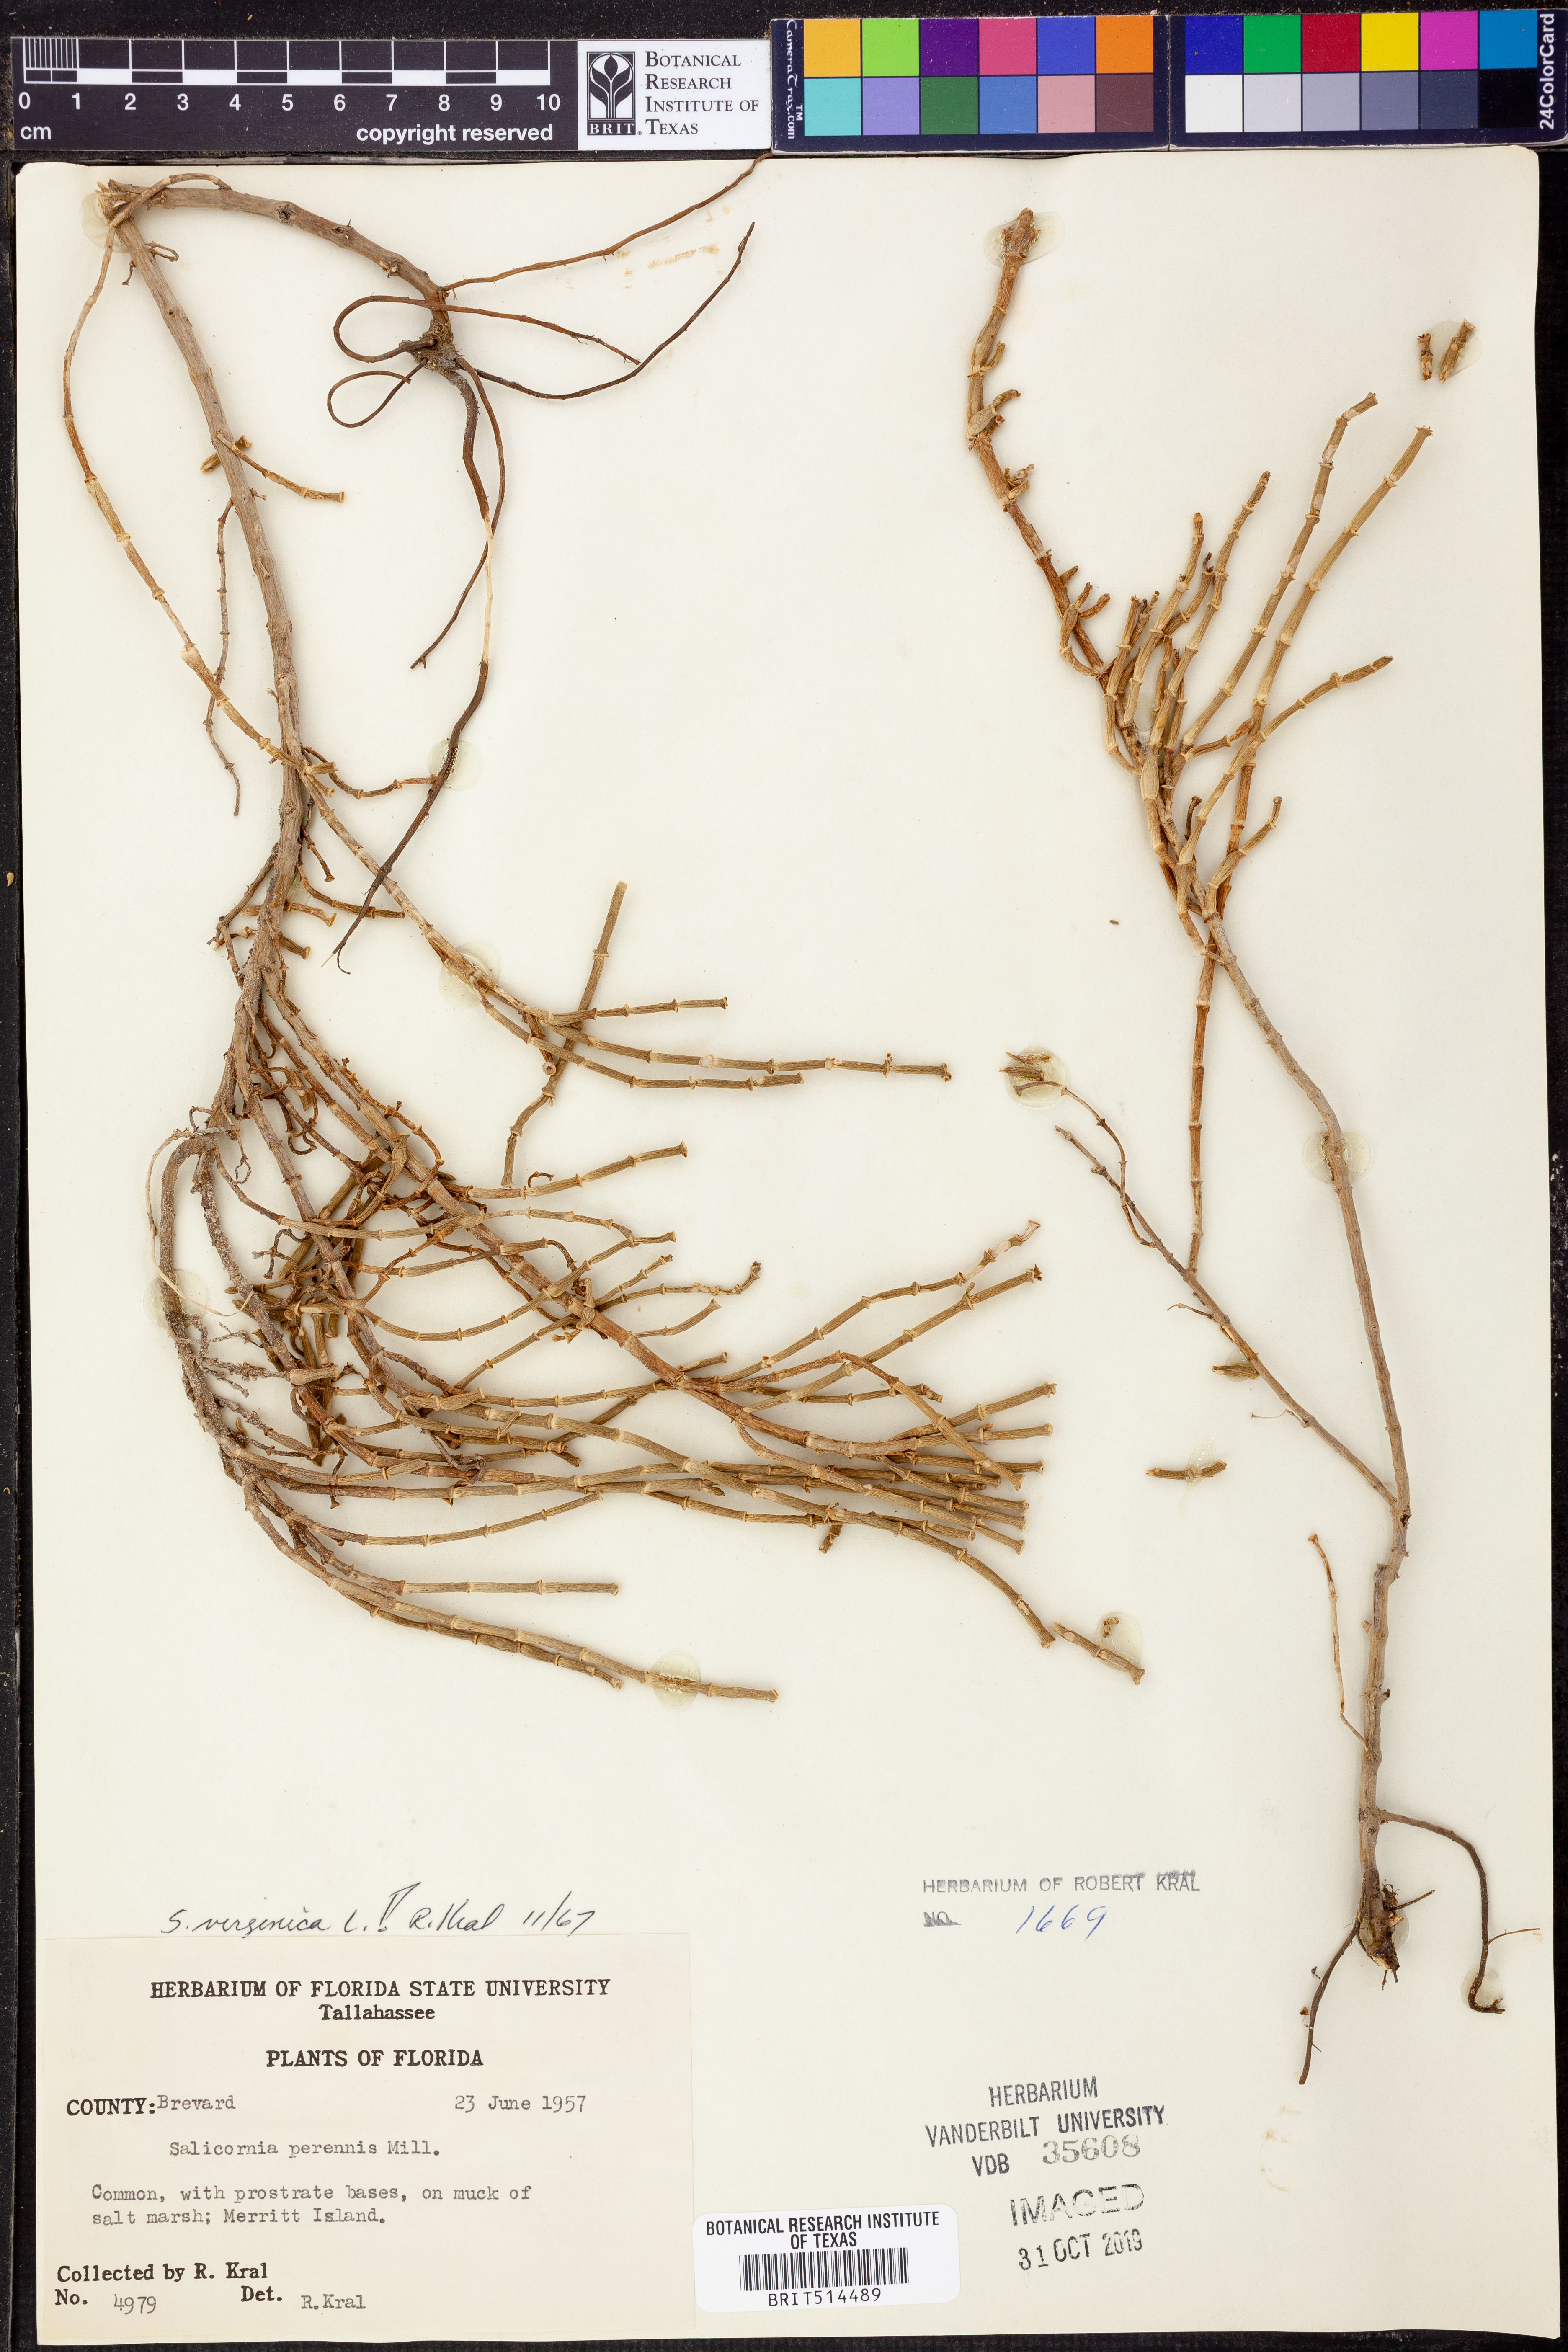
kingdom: Plantae
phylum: Tracheophyta
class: Magnoliopsida
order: Caryophyllales
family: Amaranthaceae
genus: Salicornia
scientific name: Salicornia virginica
